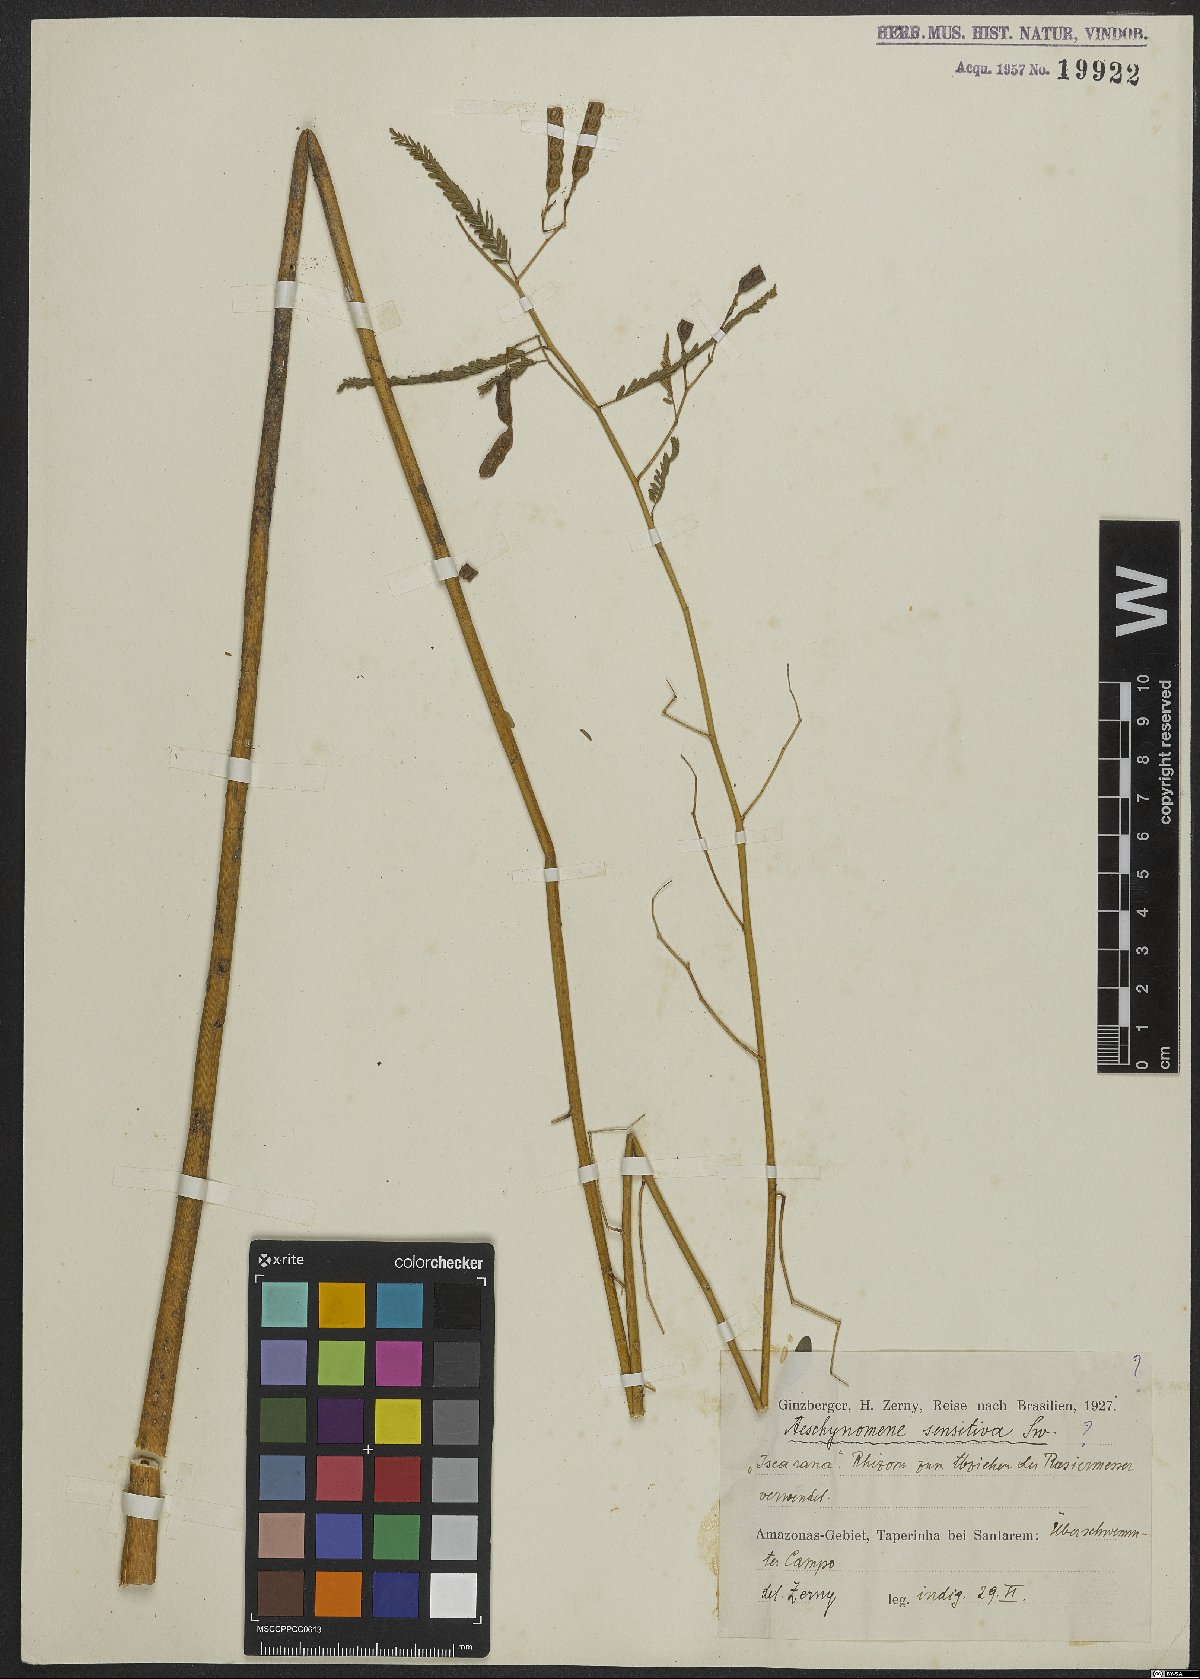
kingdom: Plantae
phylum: Tracheophyta
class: Magnoliopsida
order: Fabales
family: Fabaceae
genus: Aeschynomene
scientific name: Aeschynomene sensitiva
